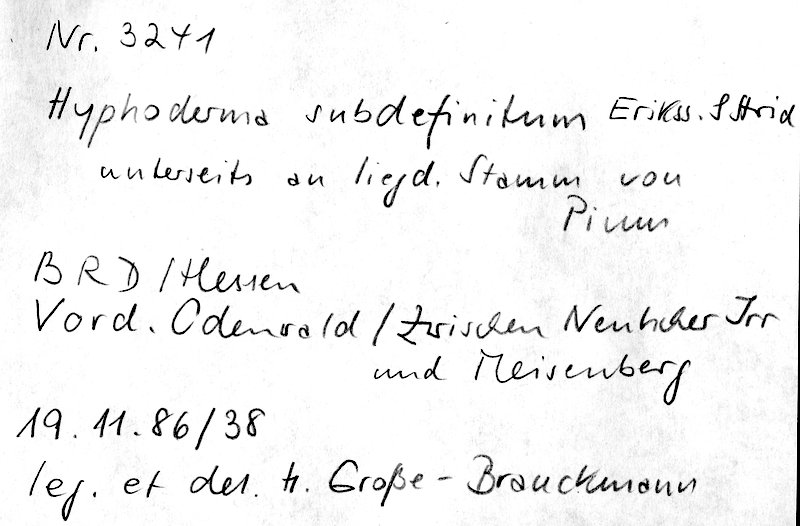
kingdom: Fungi
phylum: Basidiomycota
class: Agaricomycetes
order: Polyporales
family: Hyphodermataceae
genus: Hyphoderma
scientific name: Hyphoderma occidentale
